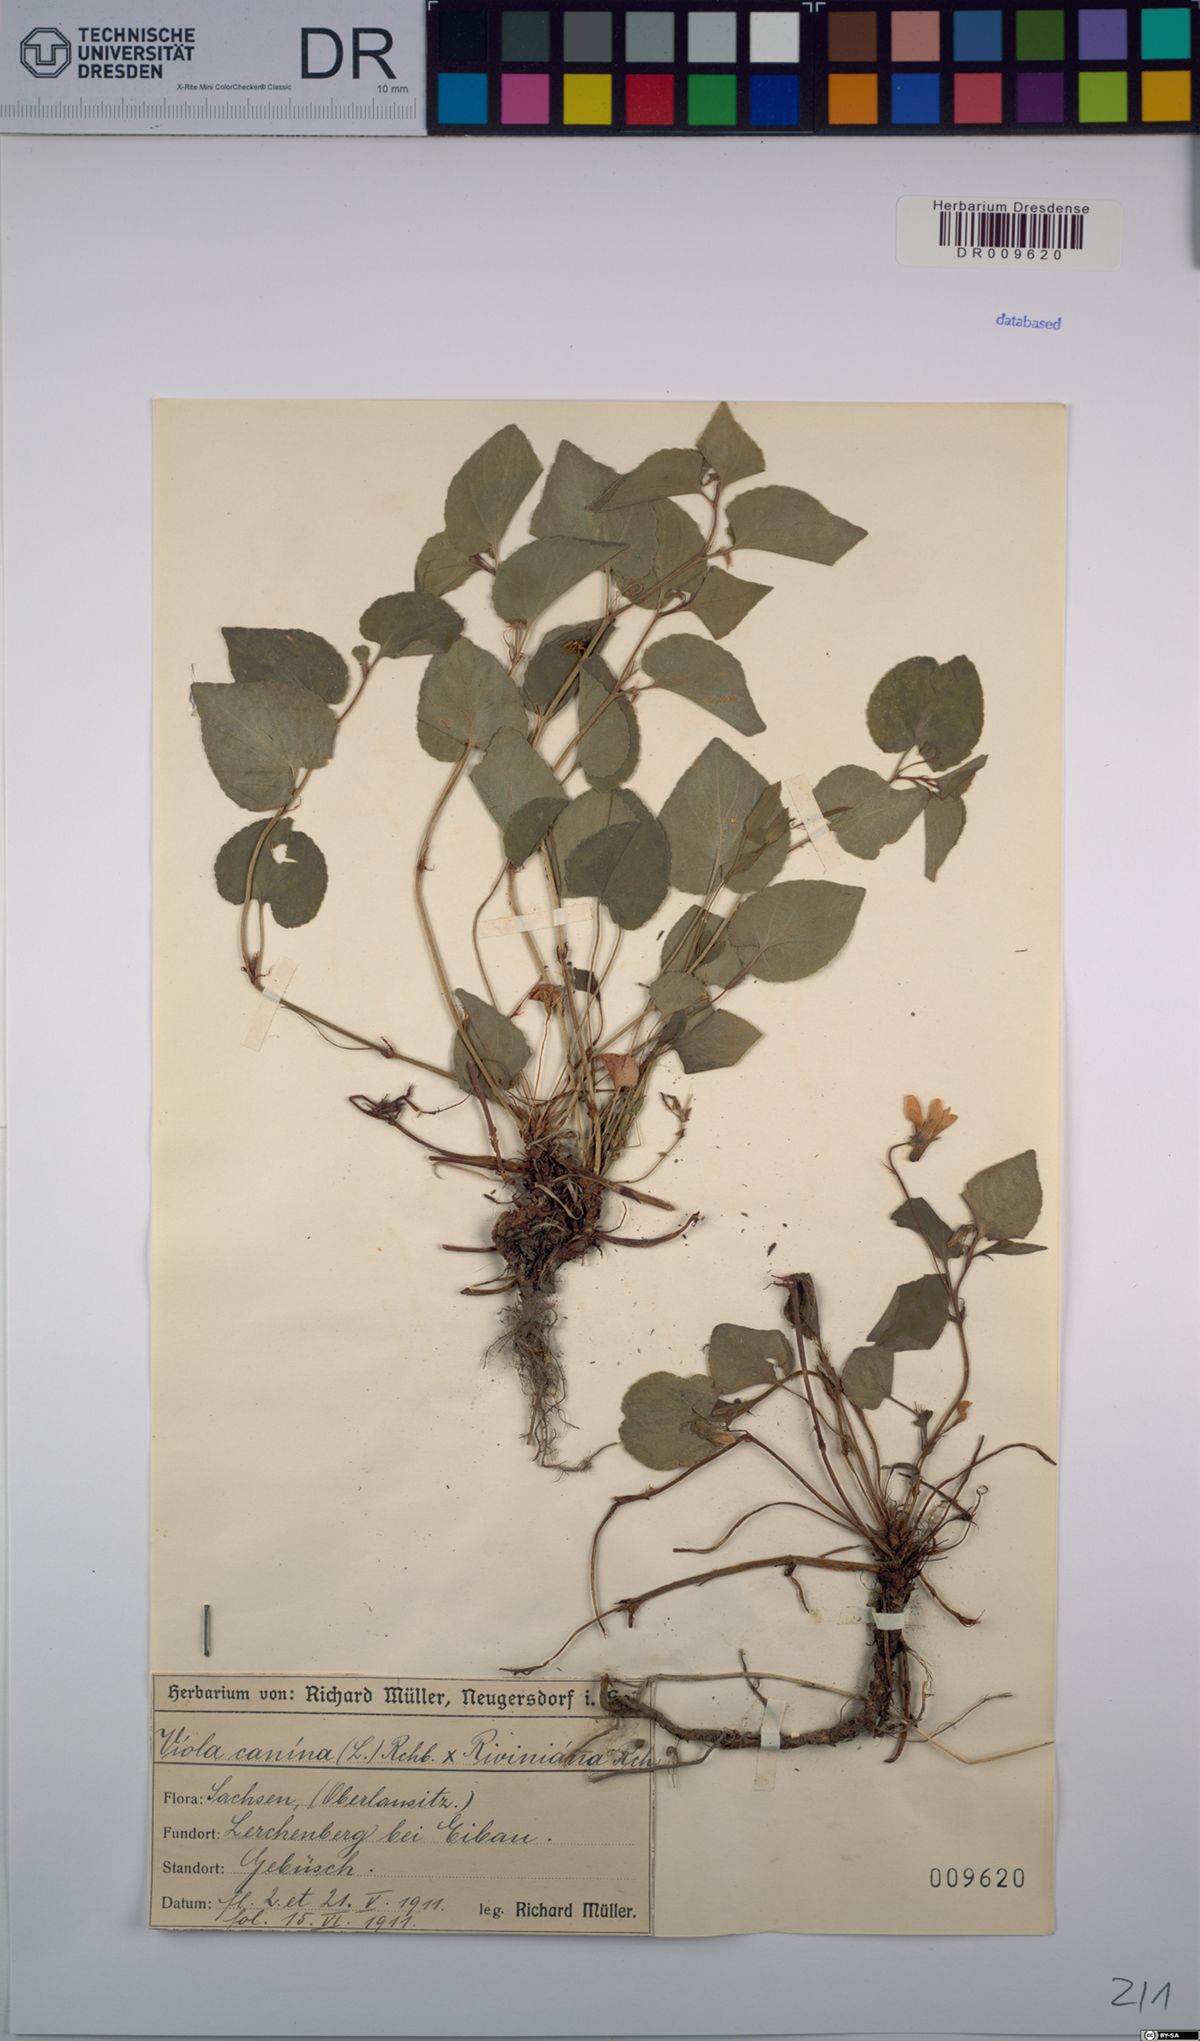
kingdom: Plantae
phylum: Tracheophyta
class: Magnoliopsida
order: Malpighiales
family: Violaceae
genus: Viola
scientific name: Viola riviniana
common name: Common dog-violet
